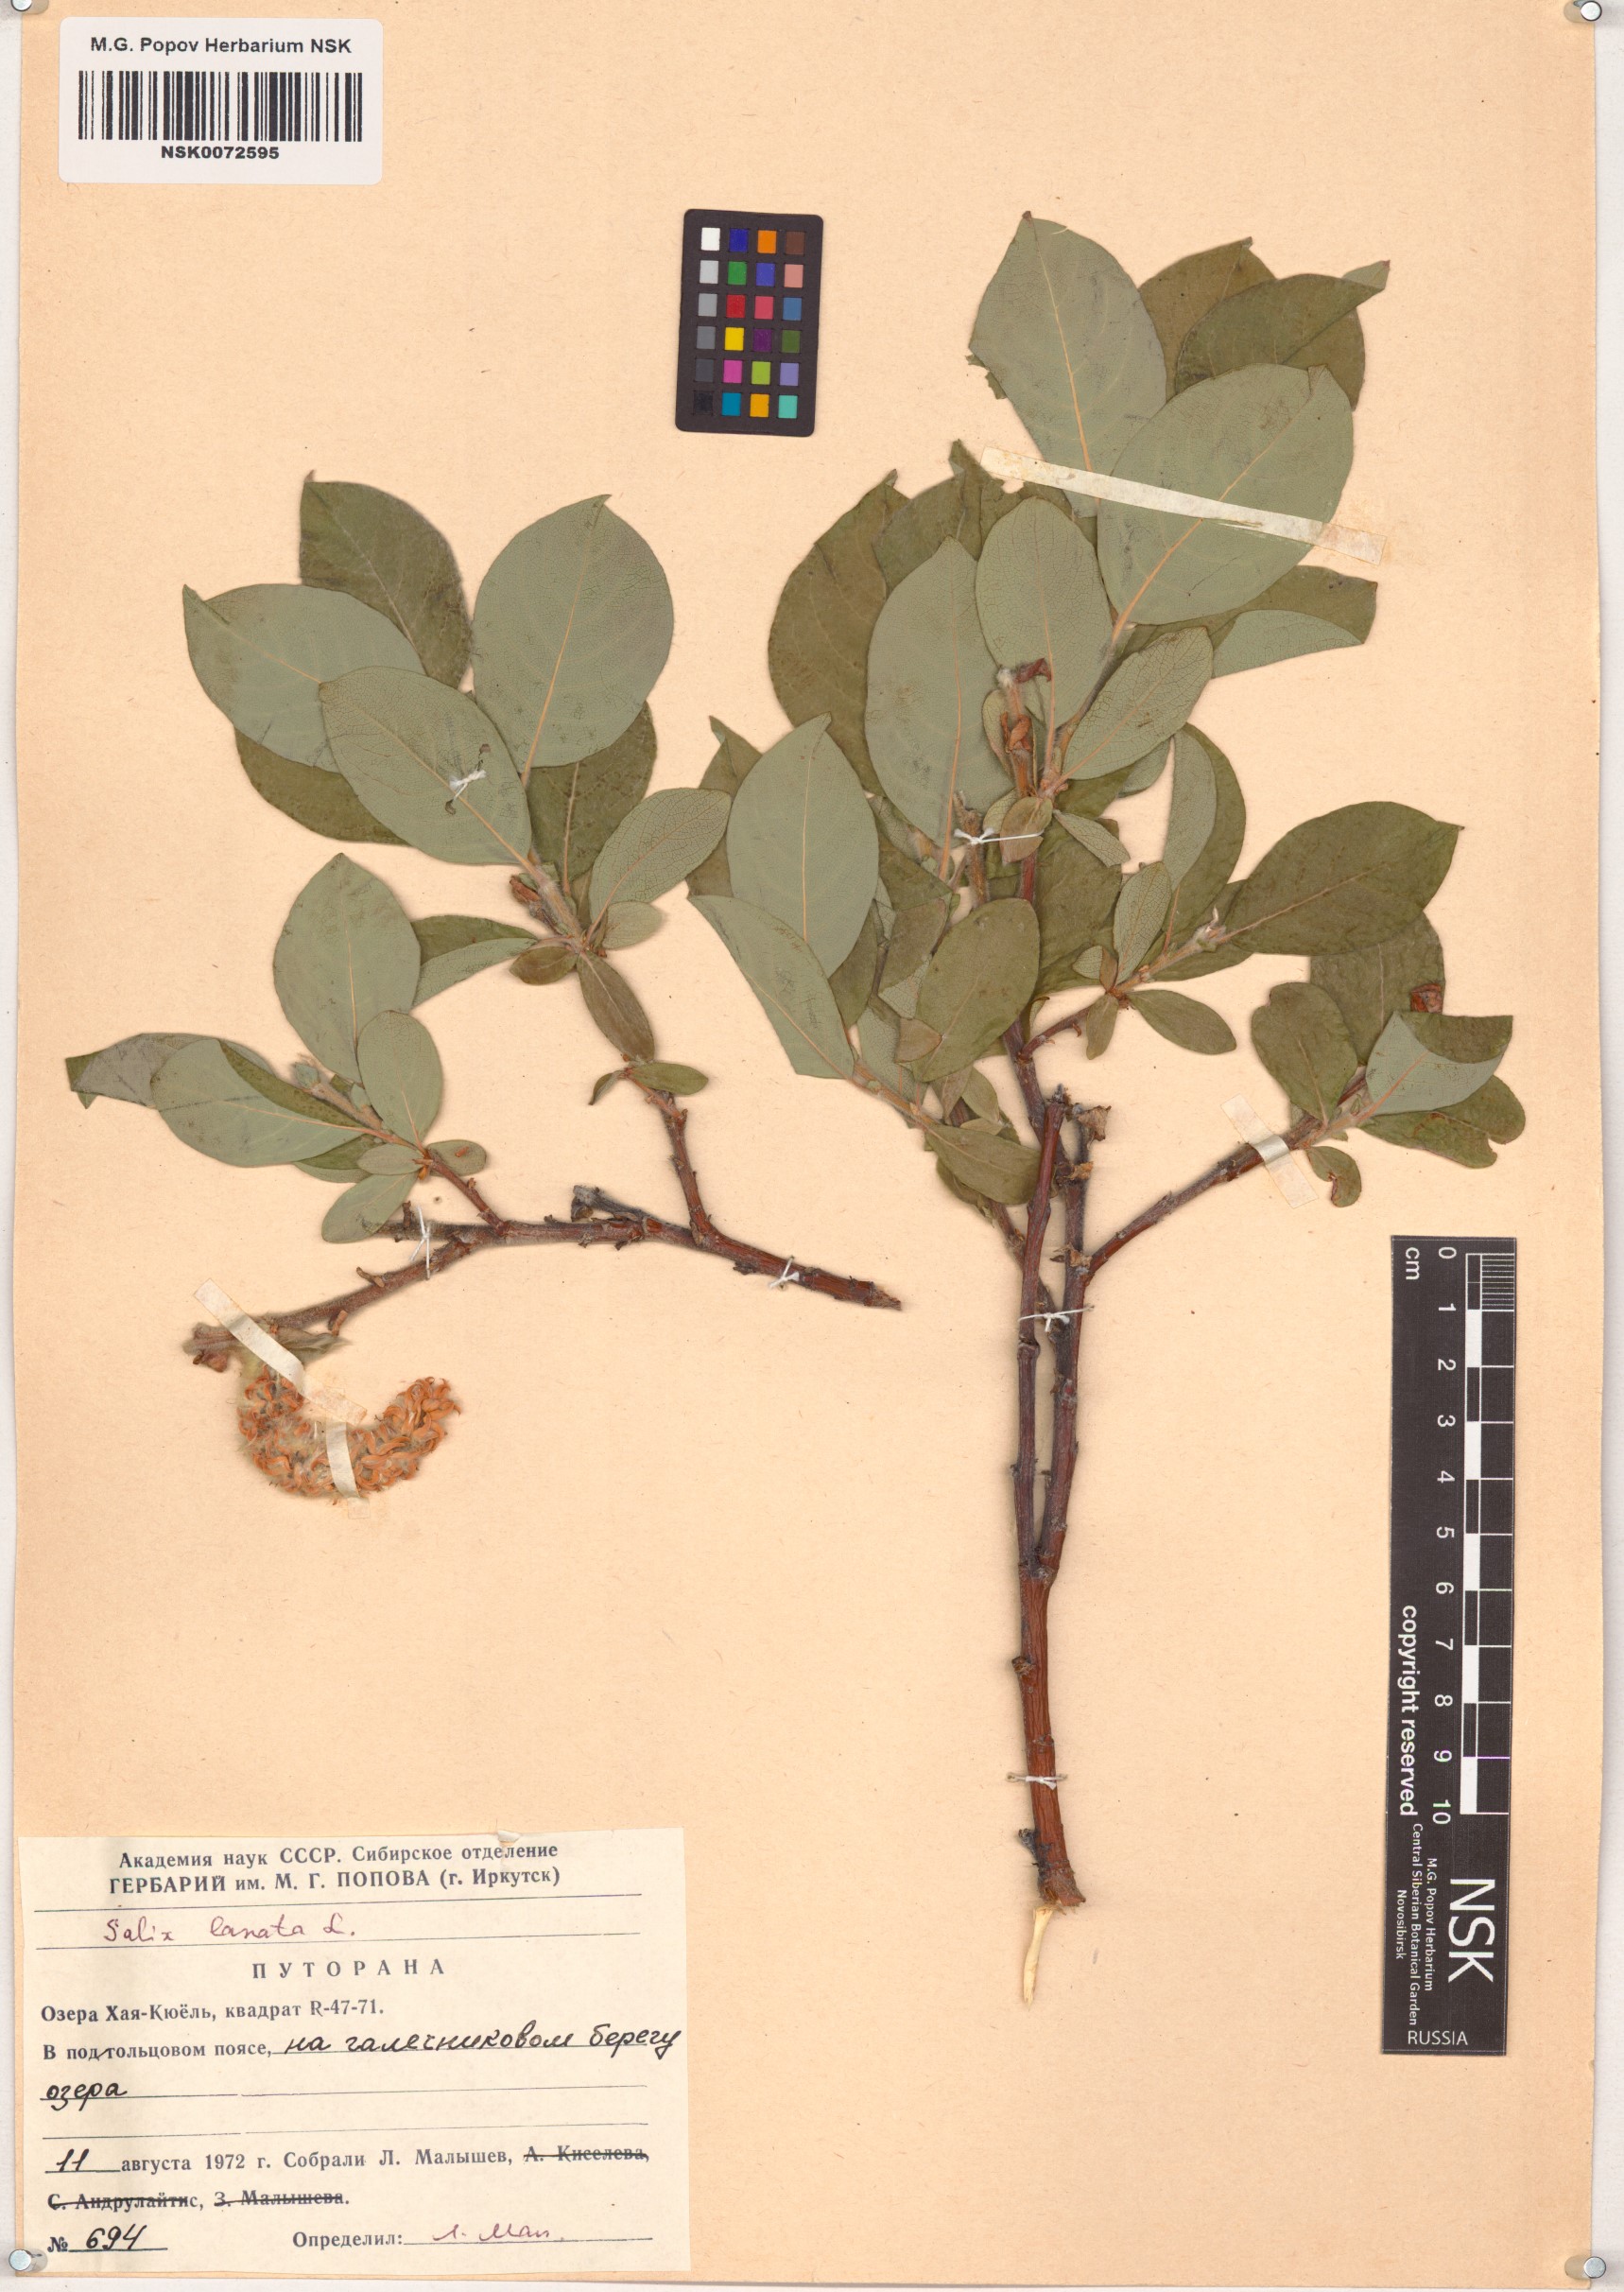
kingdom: Plantae
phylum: Tracheophyta
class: Magnoliopsida
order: Malpighiales
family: Salicaceae
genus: Salix
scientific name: Salix lanata
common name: Woolly willow
